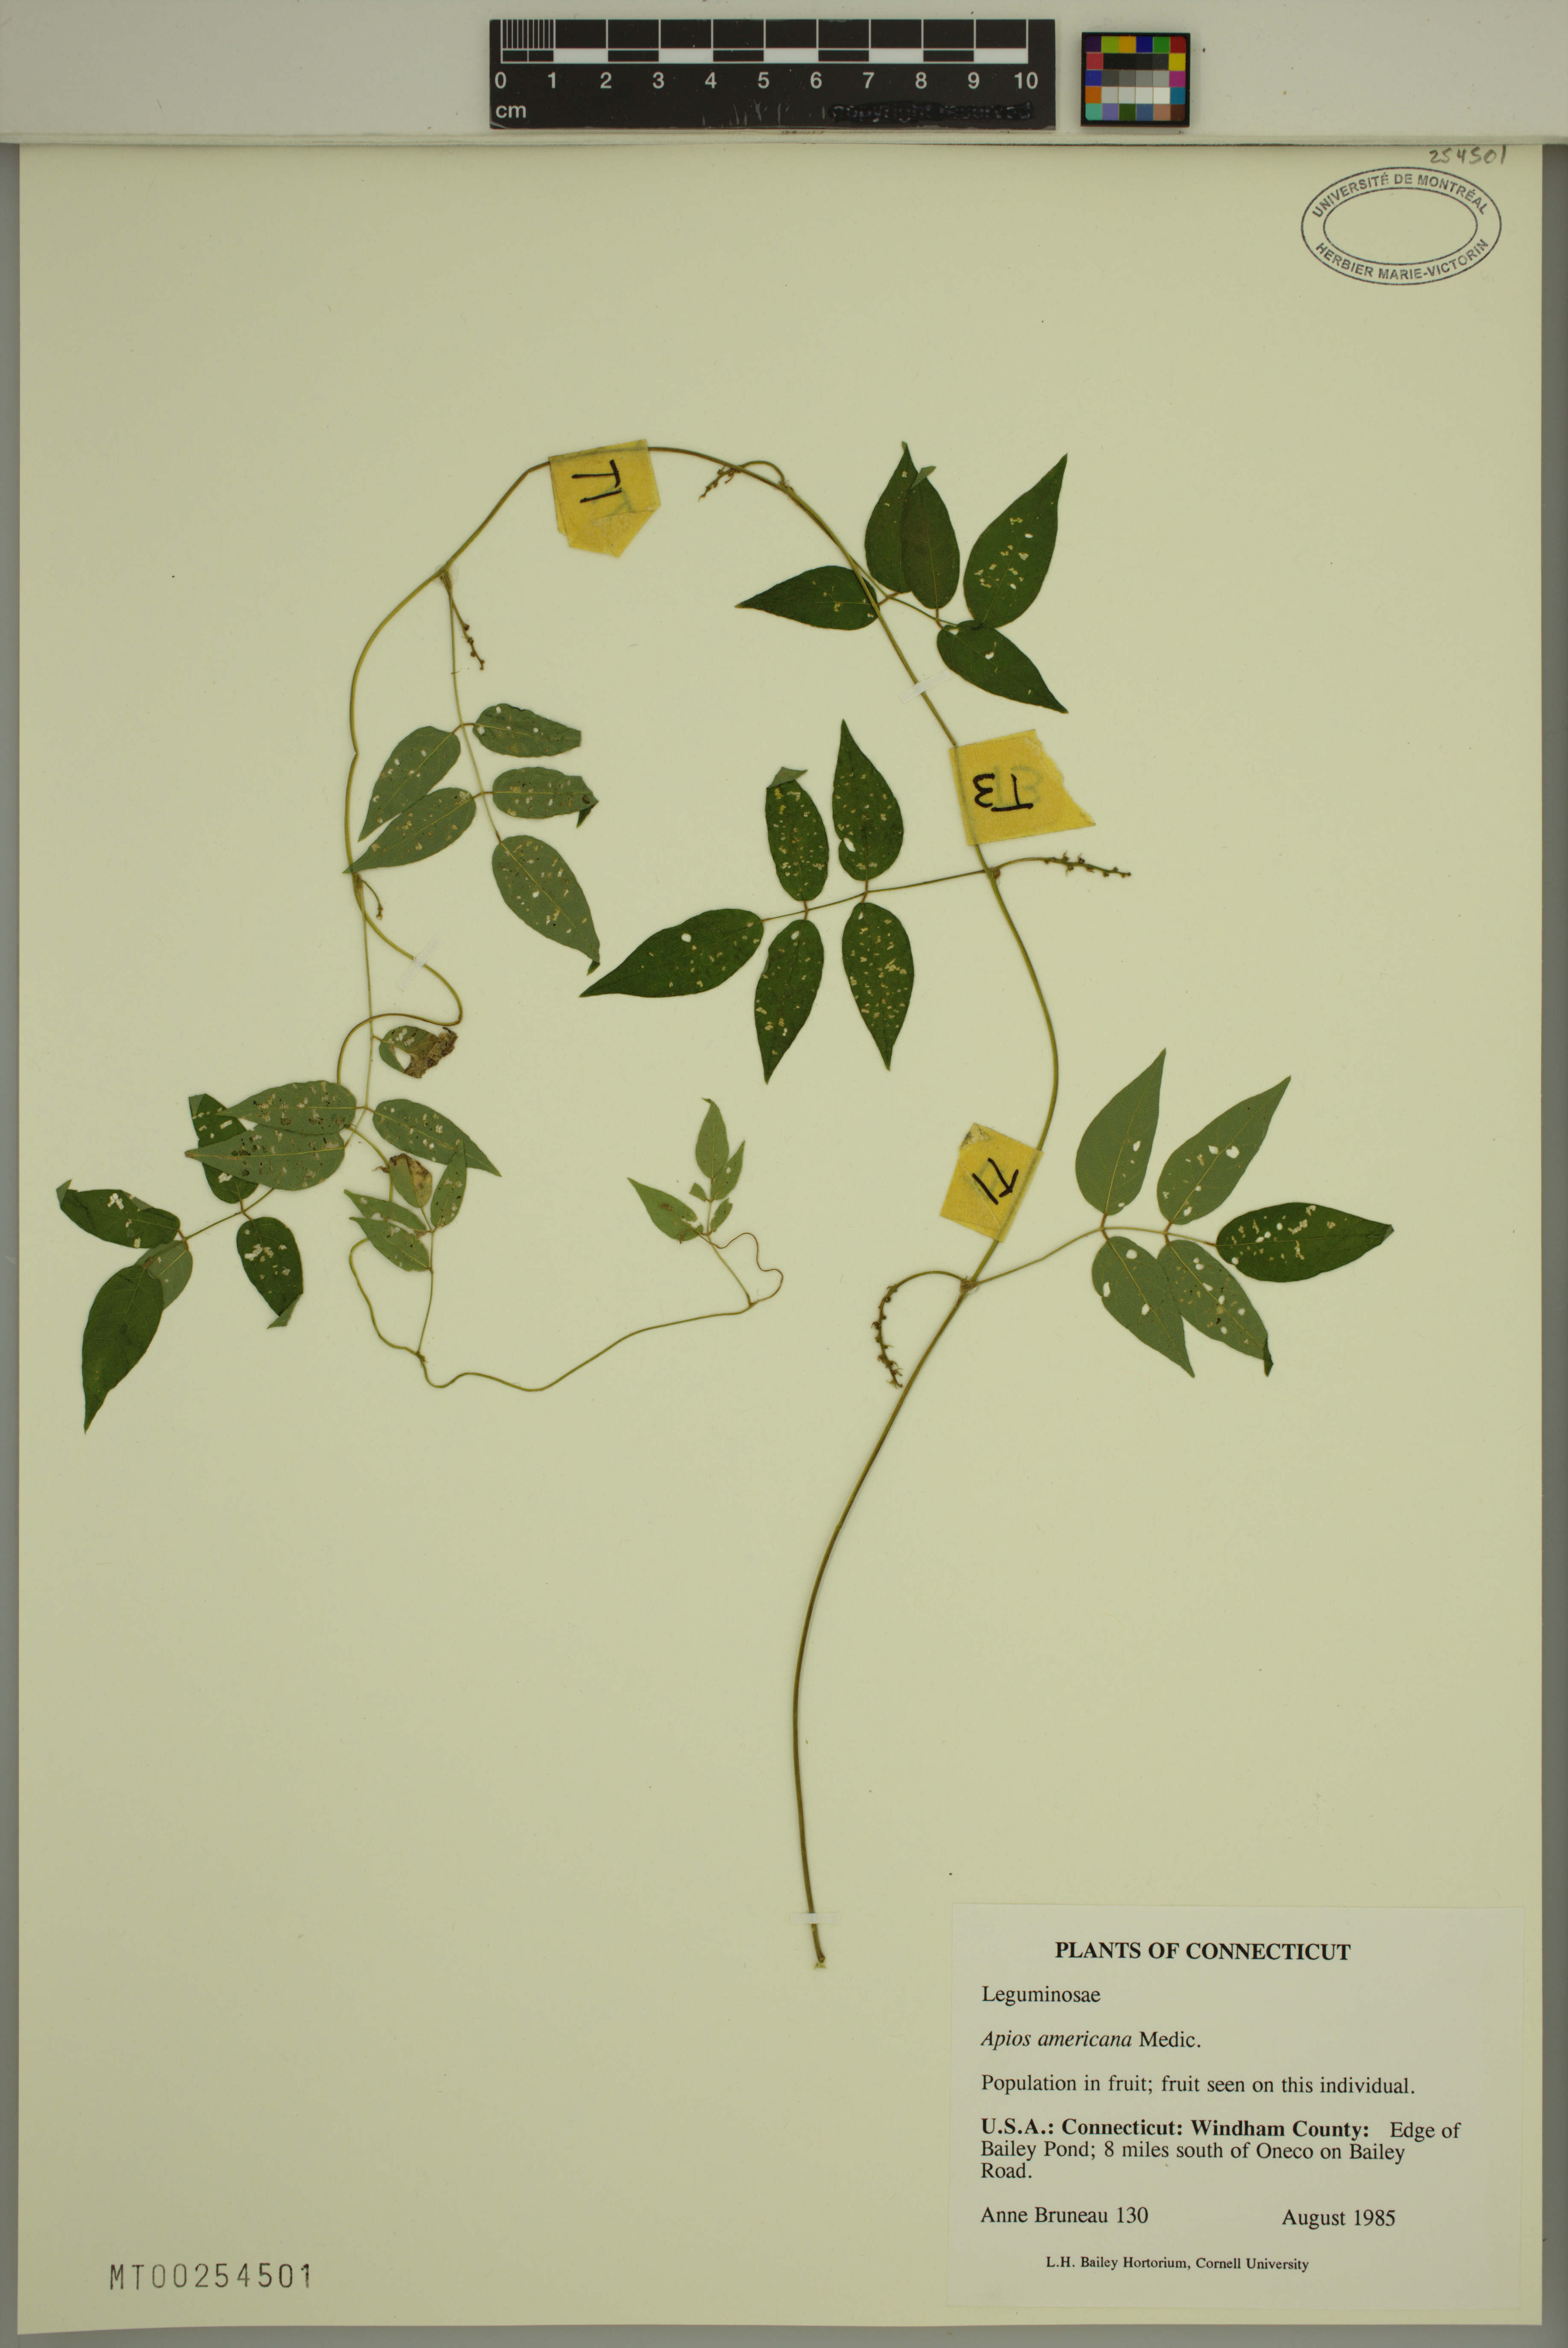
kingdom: Plantae
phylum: Tracheophyta
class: Magnoliopsida
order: Fabales
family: Fabaceae
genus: Apios
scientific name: Apios americana
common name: American potato-bean
